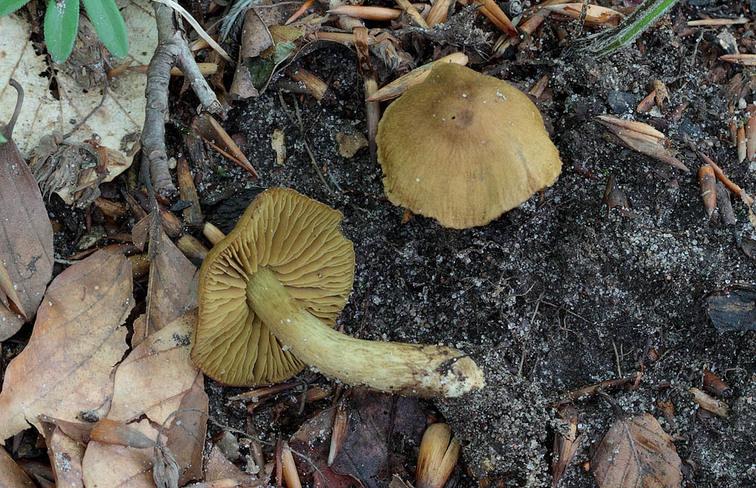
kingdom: Fungi
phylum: Basidiomycota
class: Agaricomycetes
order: Agaricales
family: Cortinariaceae
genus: Cortinarius
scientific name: Cortinarius olivaceofuscus
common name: olivenbrun slørhat
